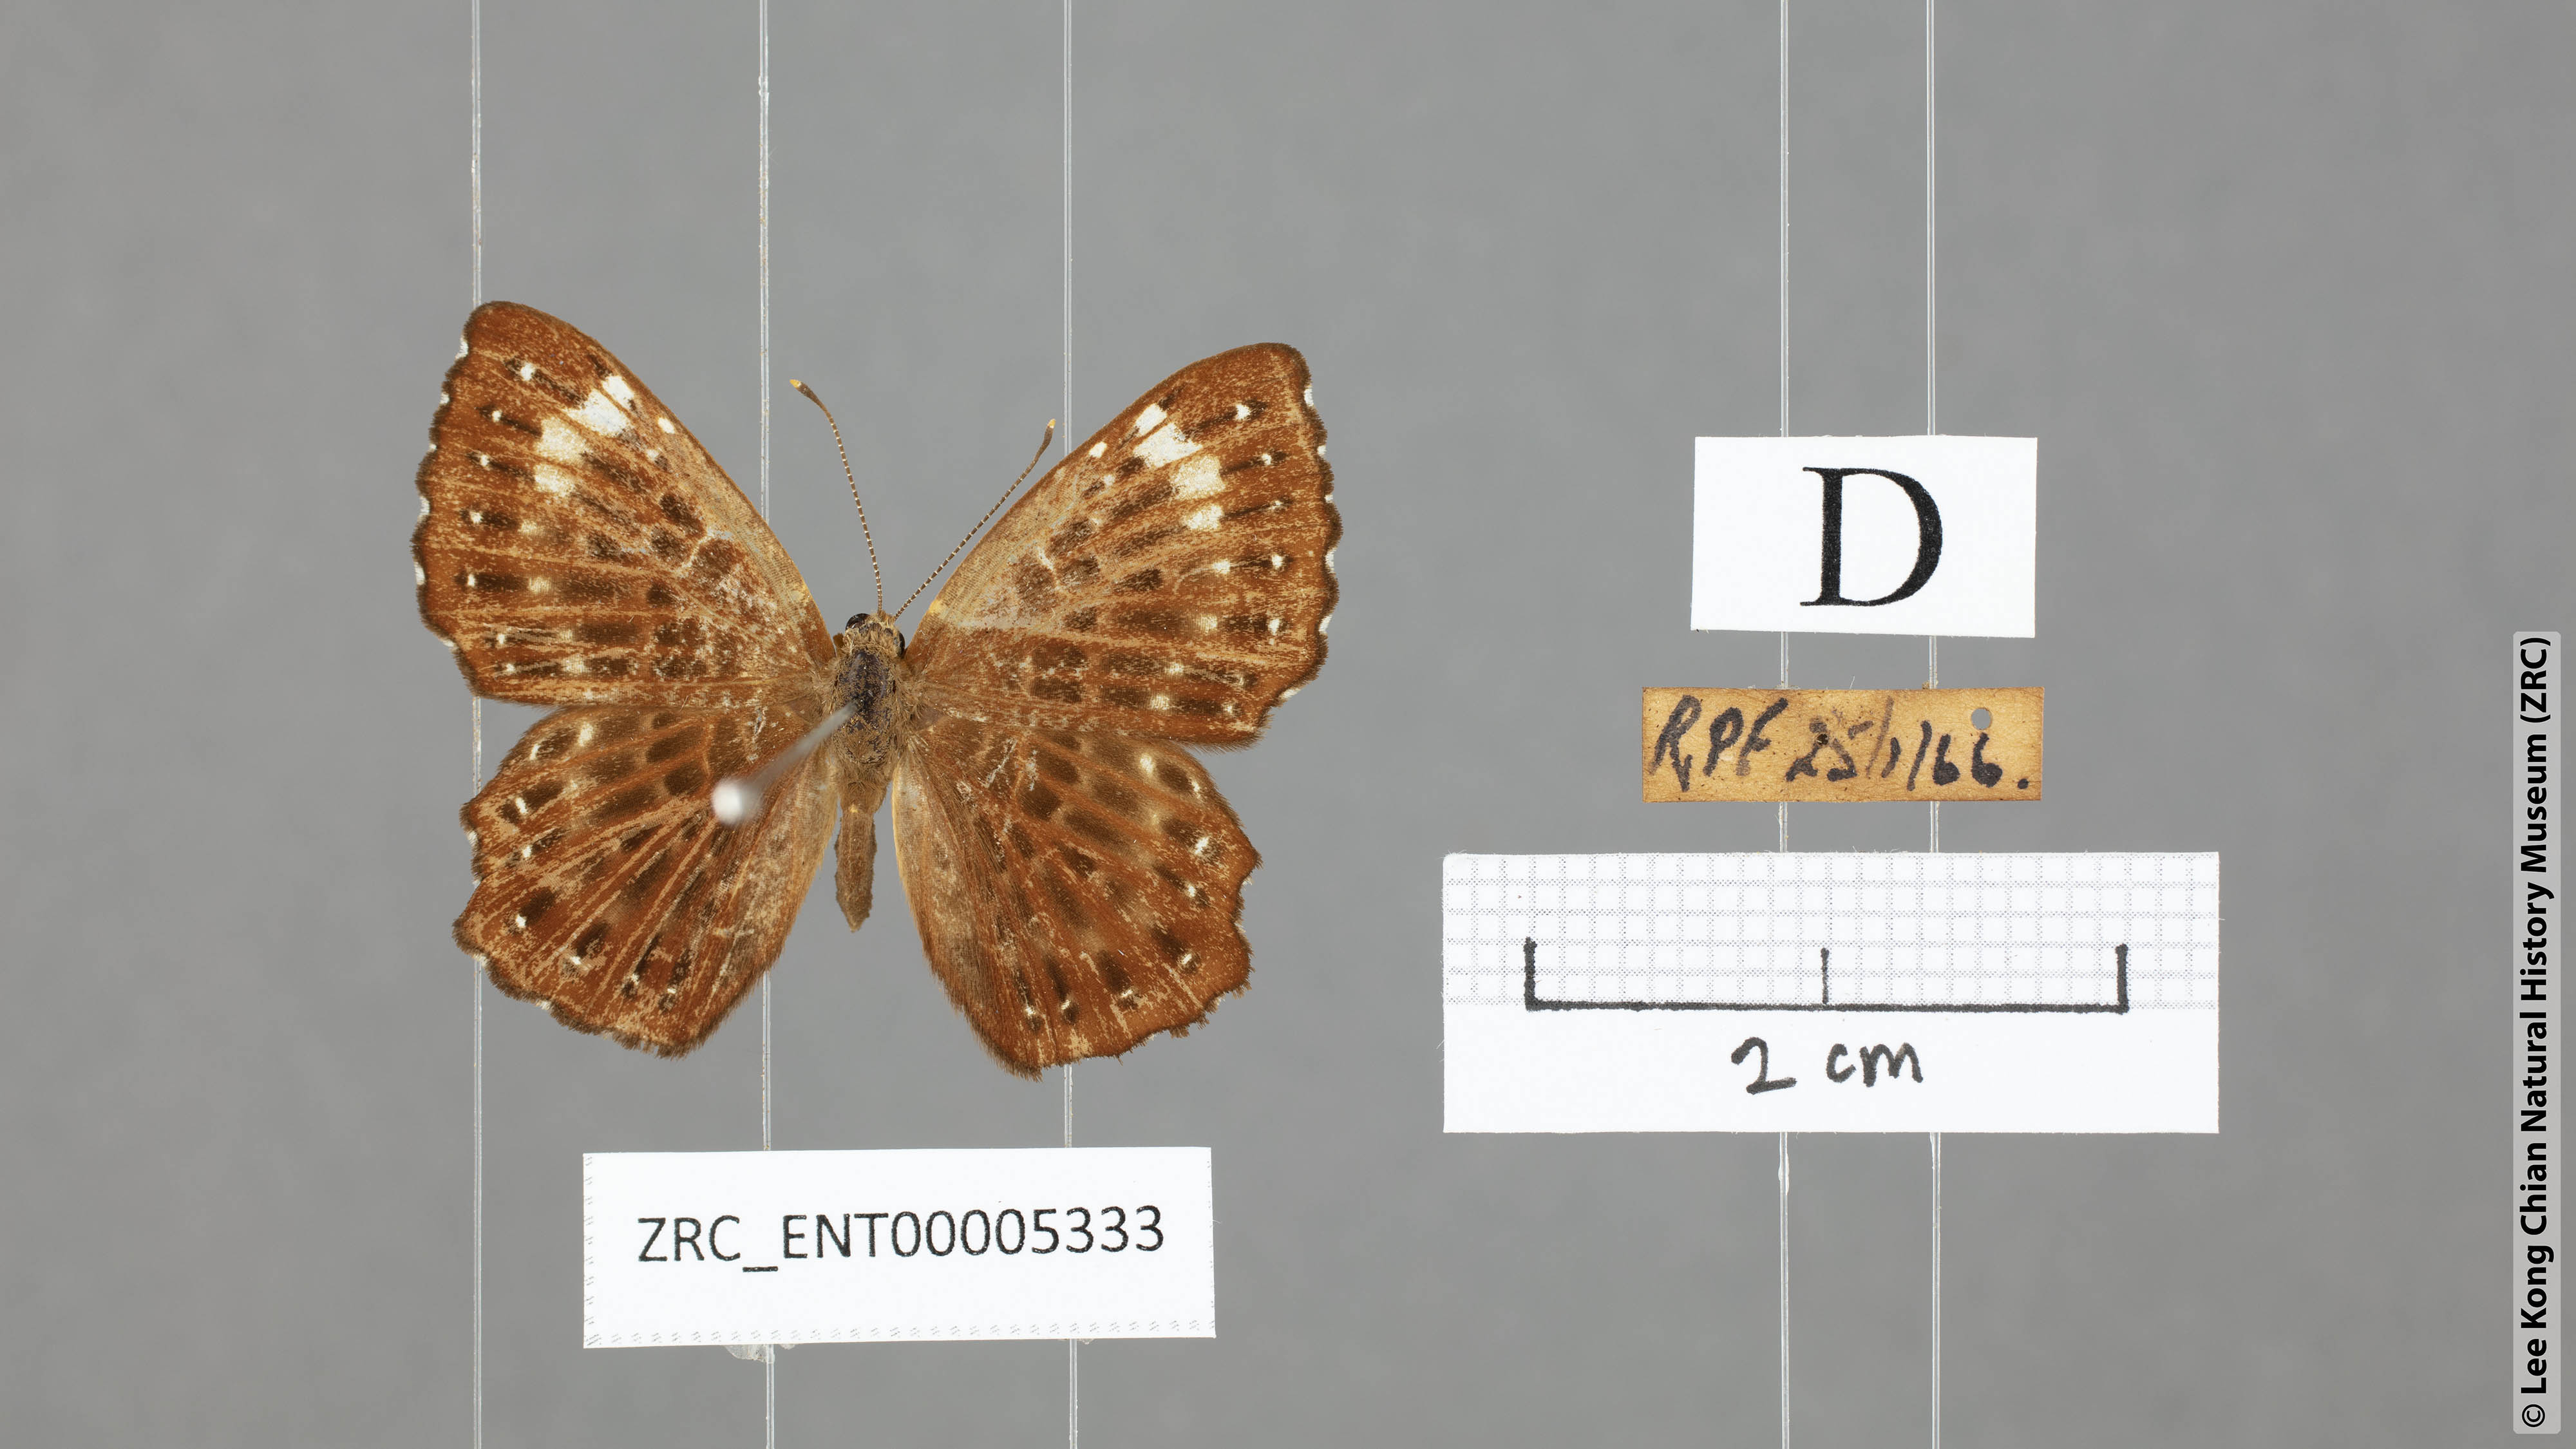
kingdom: Animalia
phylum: Arthropoda
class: Insecta
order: Lepidoptera
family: Riodinidae
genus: Zemeros
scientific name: Zemeros flegyas
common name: Punchinello
